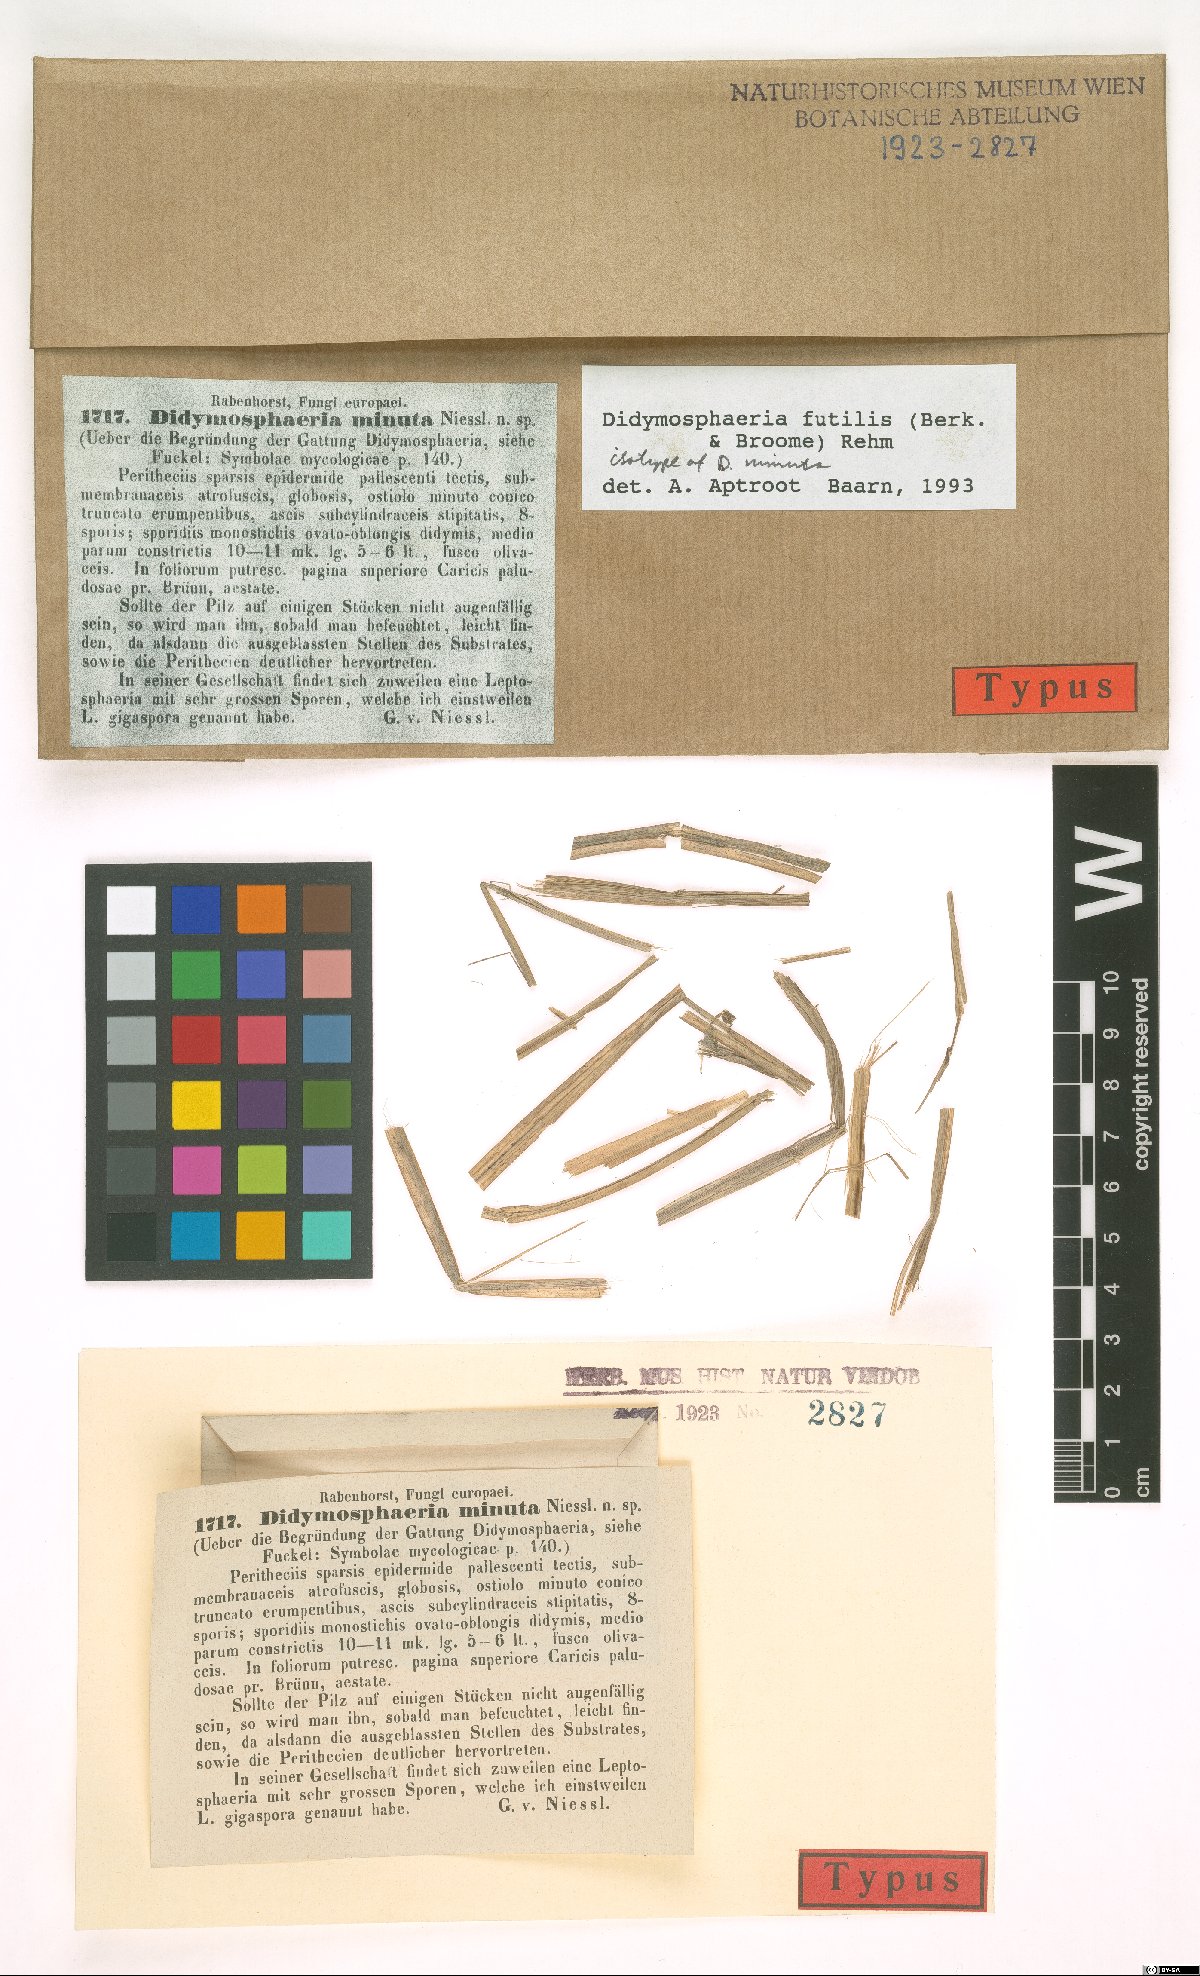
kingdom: Fungi
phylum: Ascomycota
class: Dothideomycetes
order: Pleosporales
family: Didymosphaeriaceae
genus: Didymosphaeria
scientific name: Didymosphaeria minuta
